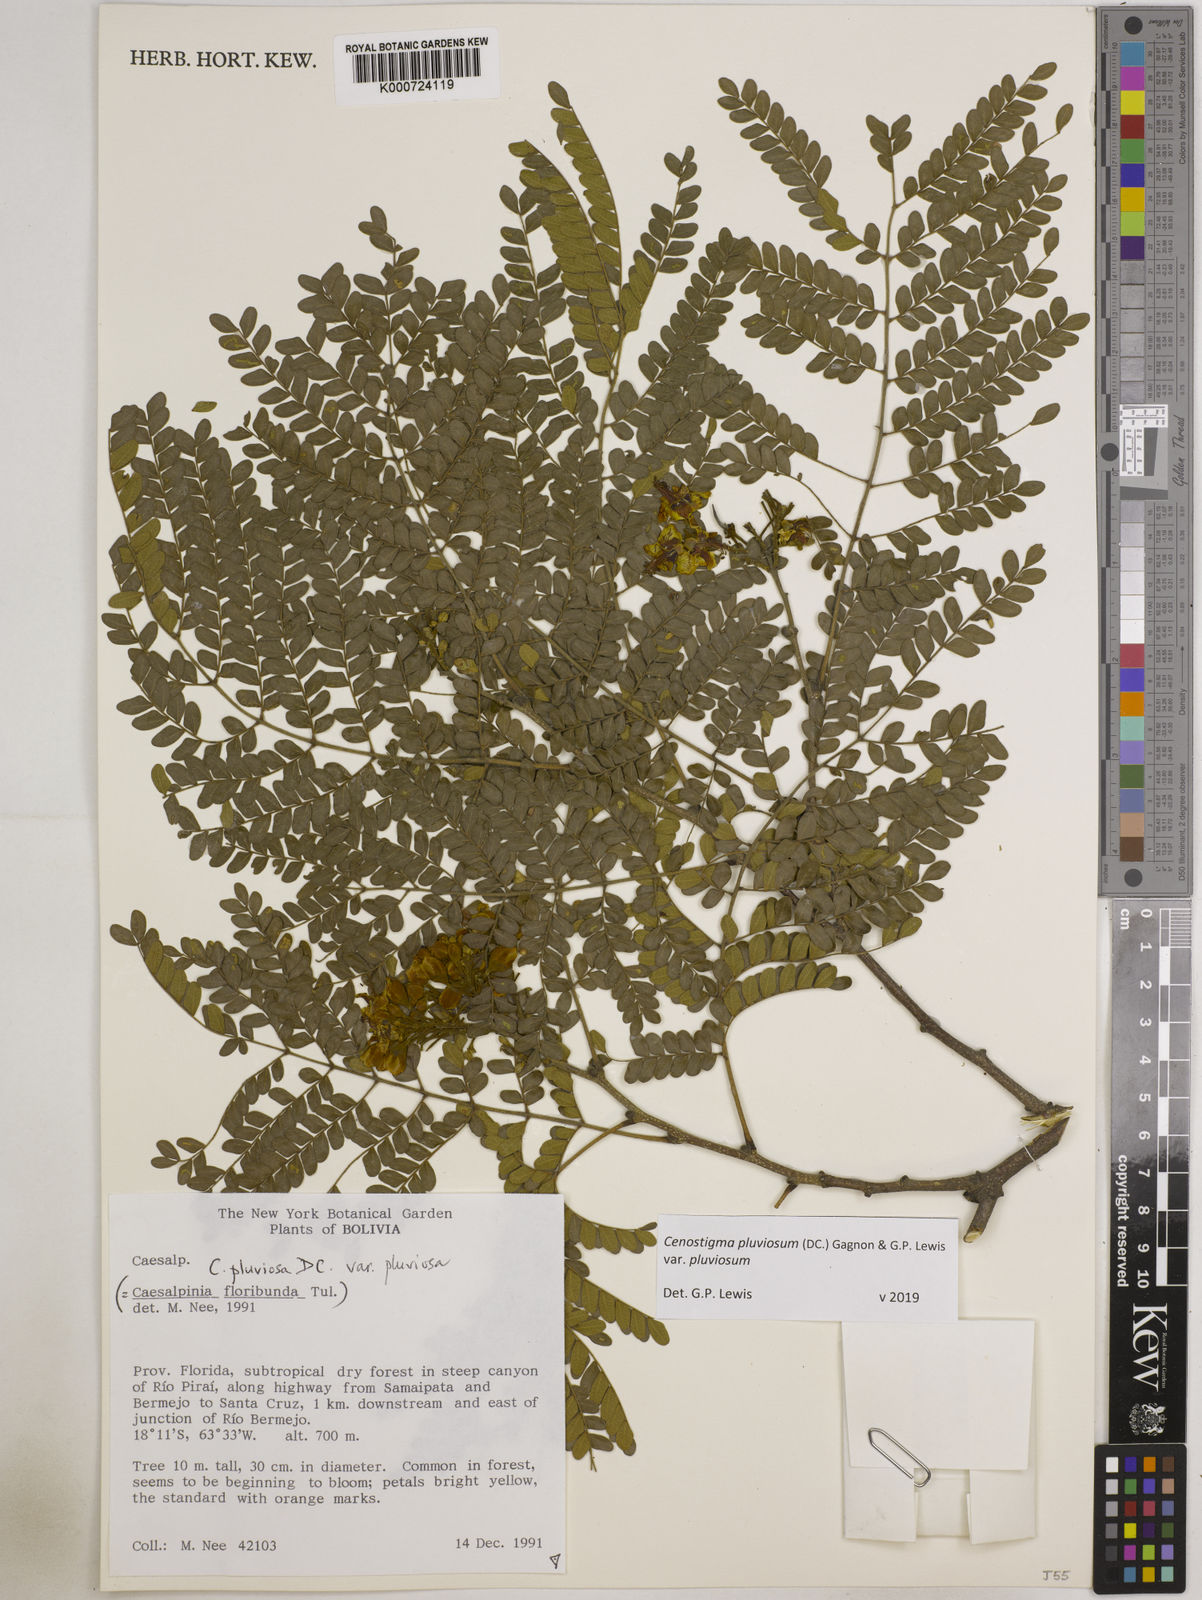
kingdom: Plantae
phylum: Tracheophyta
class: Magnoliopsida
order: Fabales
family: Fabaceae
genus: Cenostigma
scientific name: Cenostigma pluviosum
